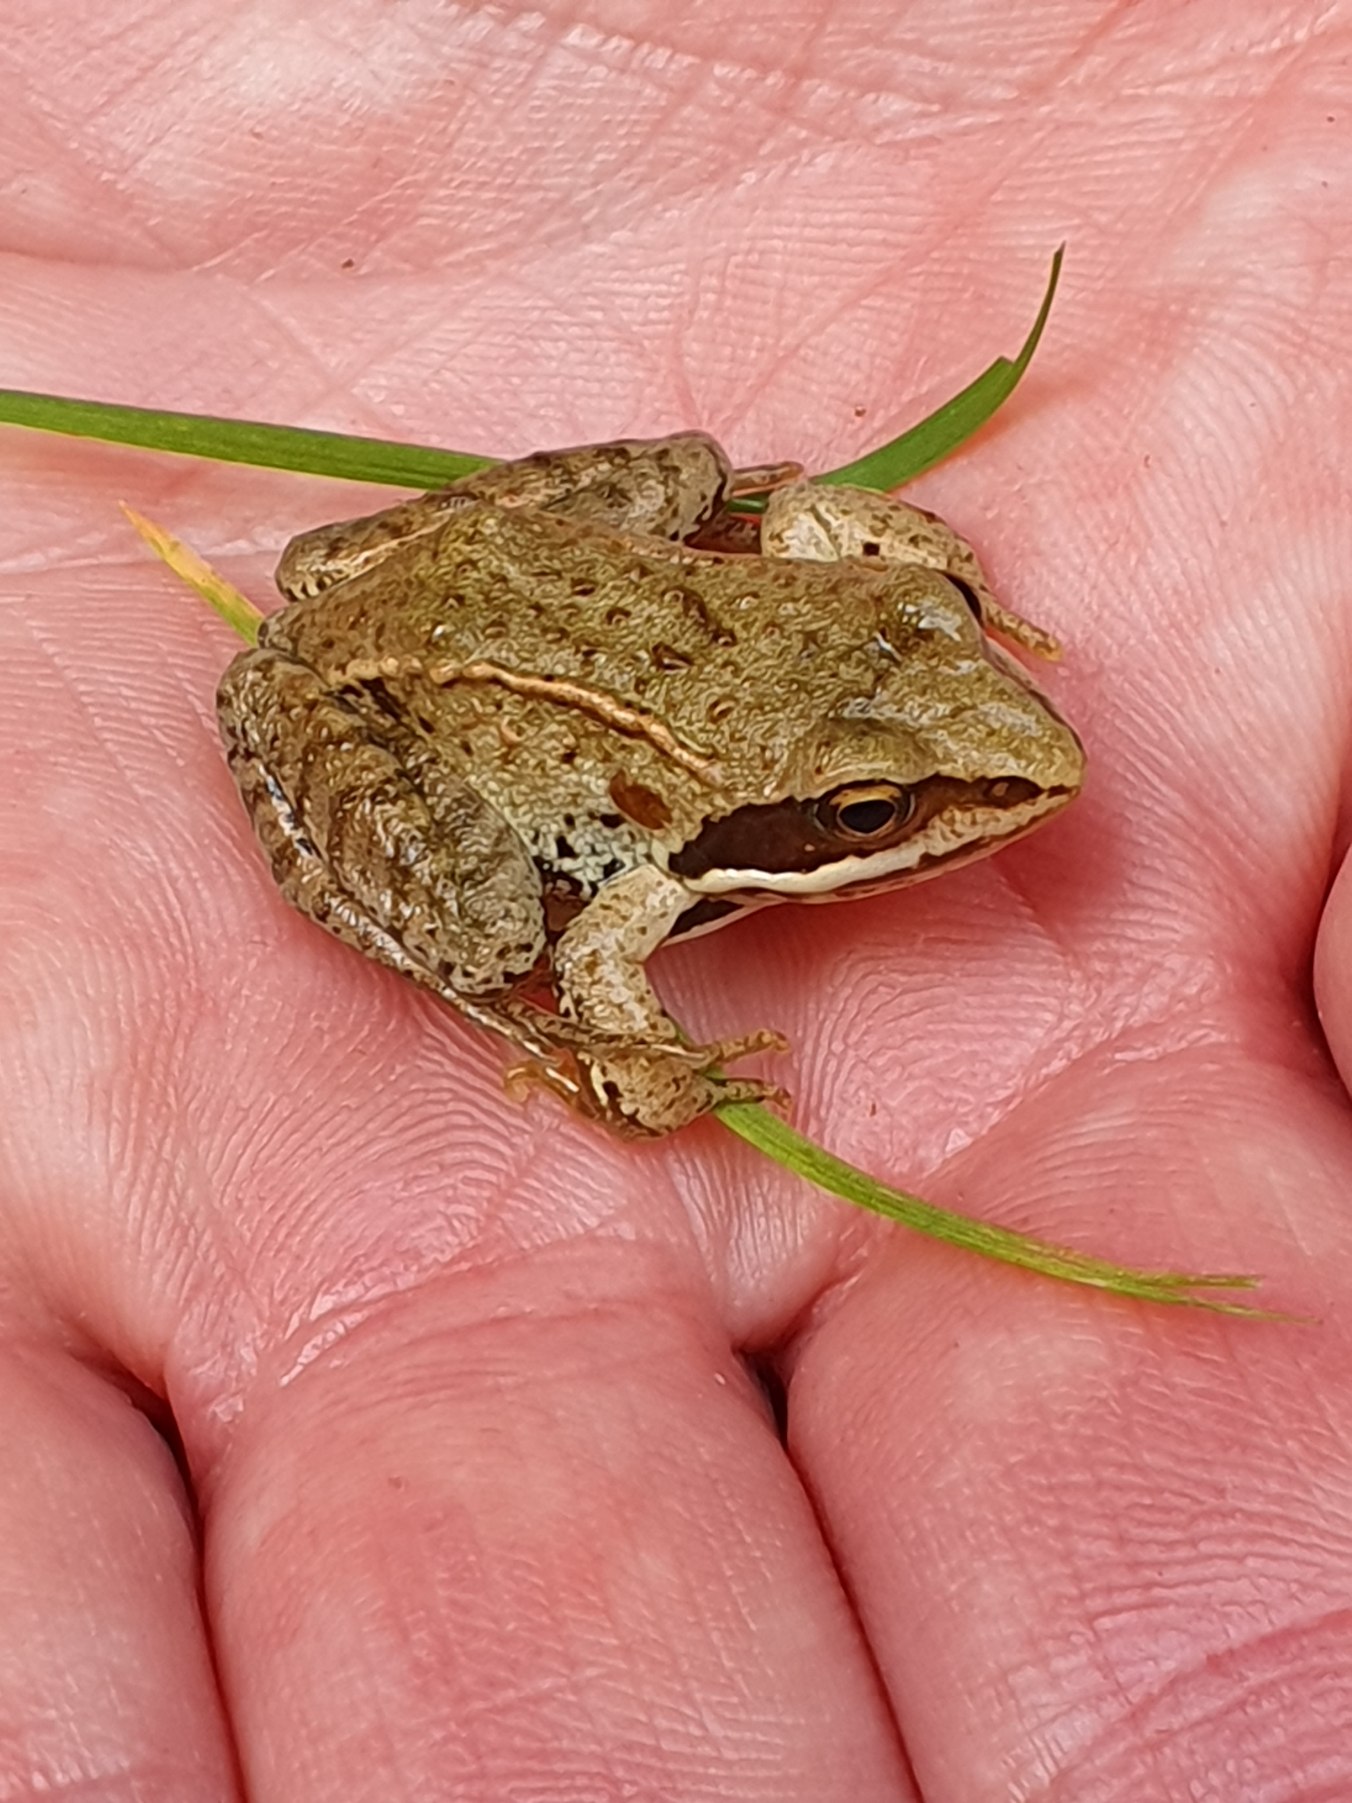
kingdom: Animalia
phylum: Chordata
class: Amphibia
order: Anura
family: Ranidae
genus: Rana
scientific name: Rana arvalis
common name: Spidssnudet frø
